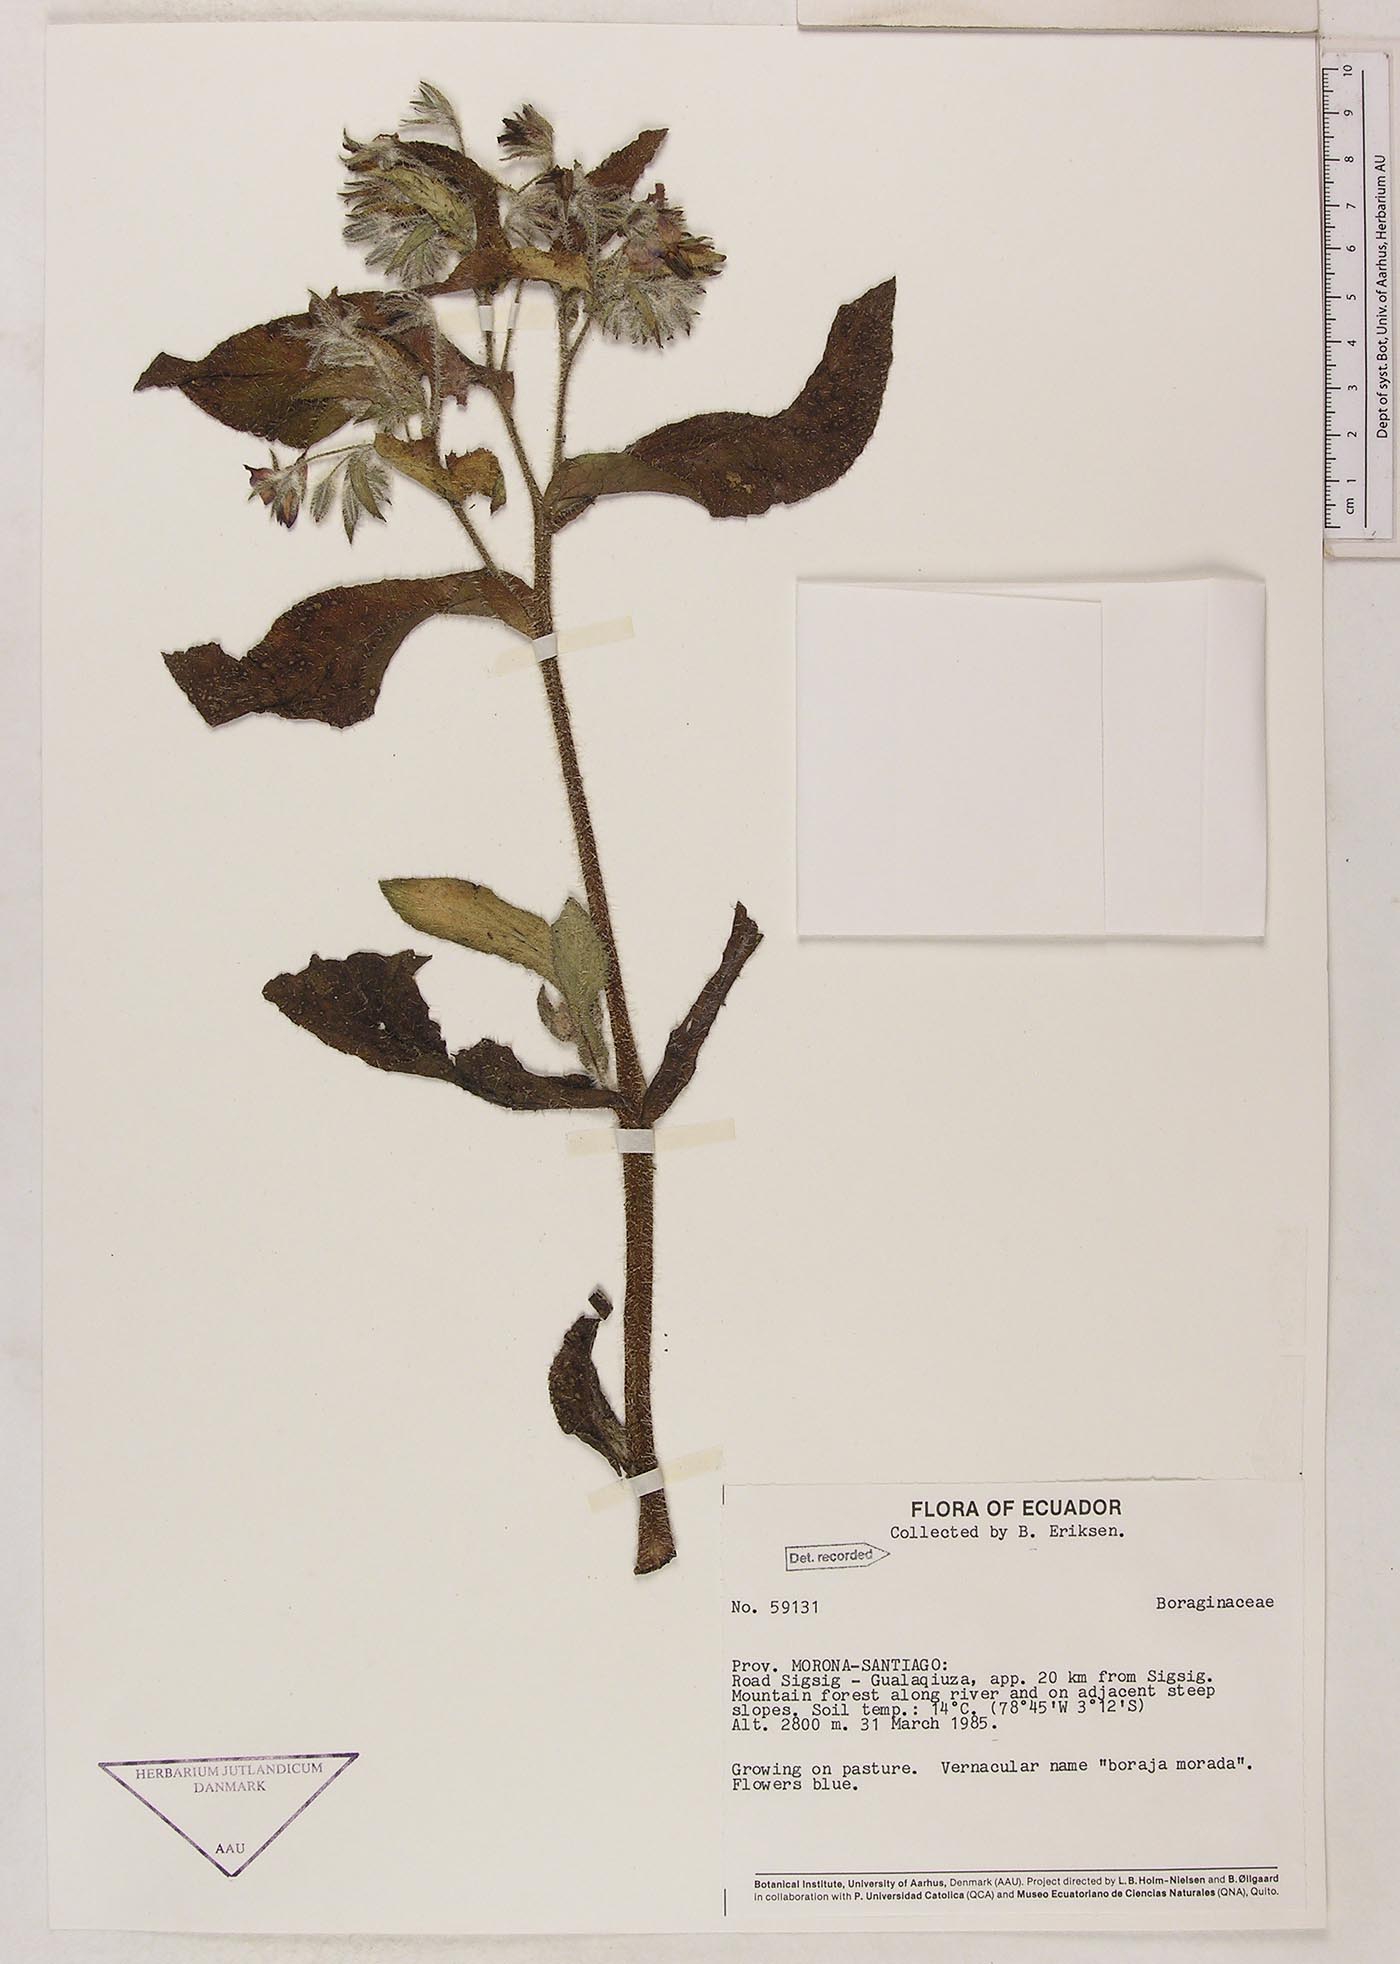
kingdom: Plantae
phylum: Tracheophyta
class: Magnoliopsida
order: Boraginales
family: Boraginaceae
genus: Borago
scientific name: Borago officinalis
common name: Borage
